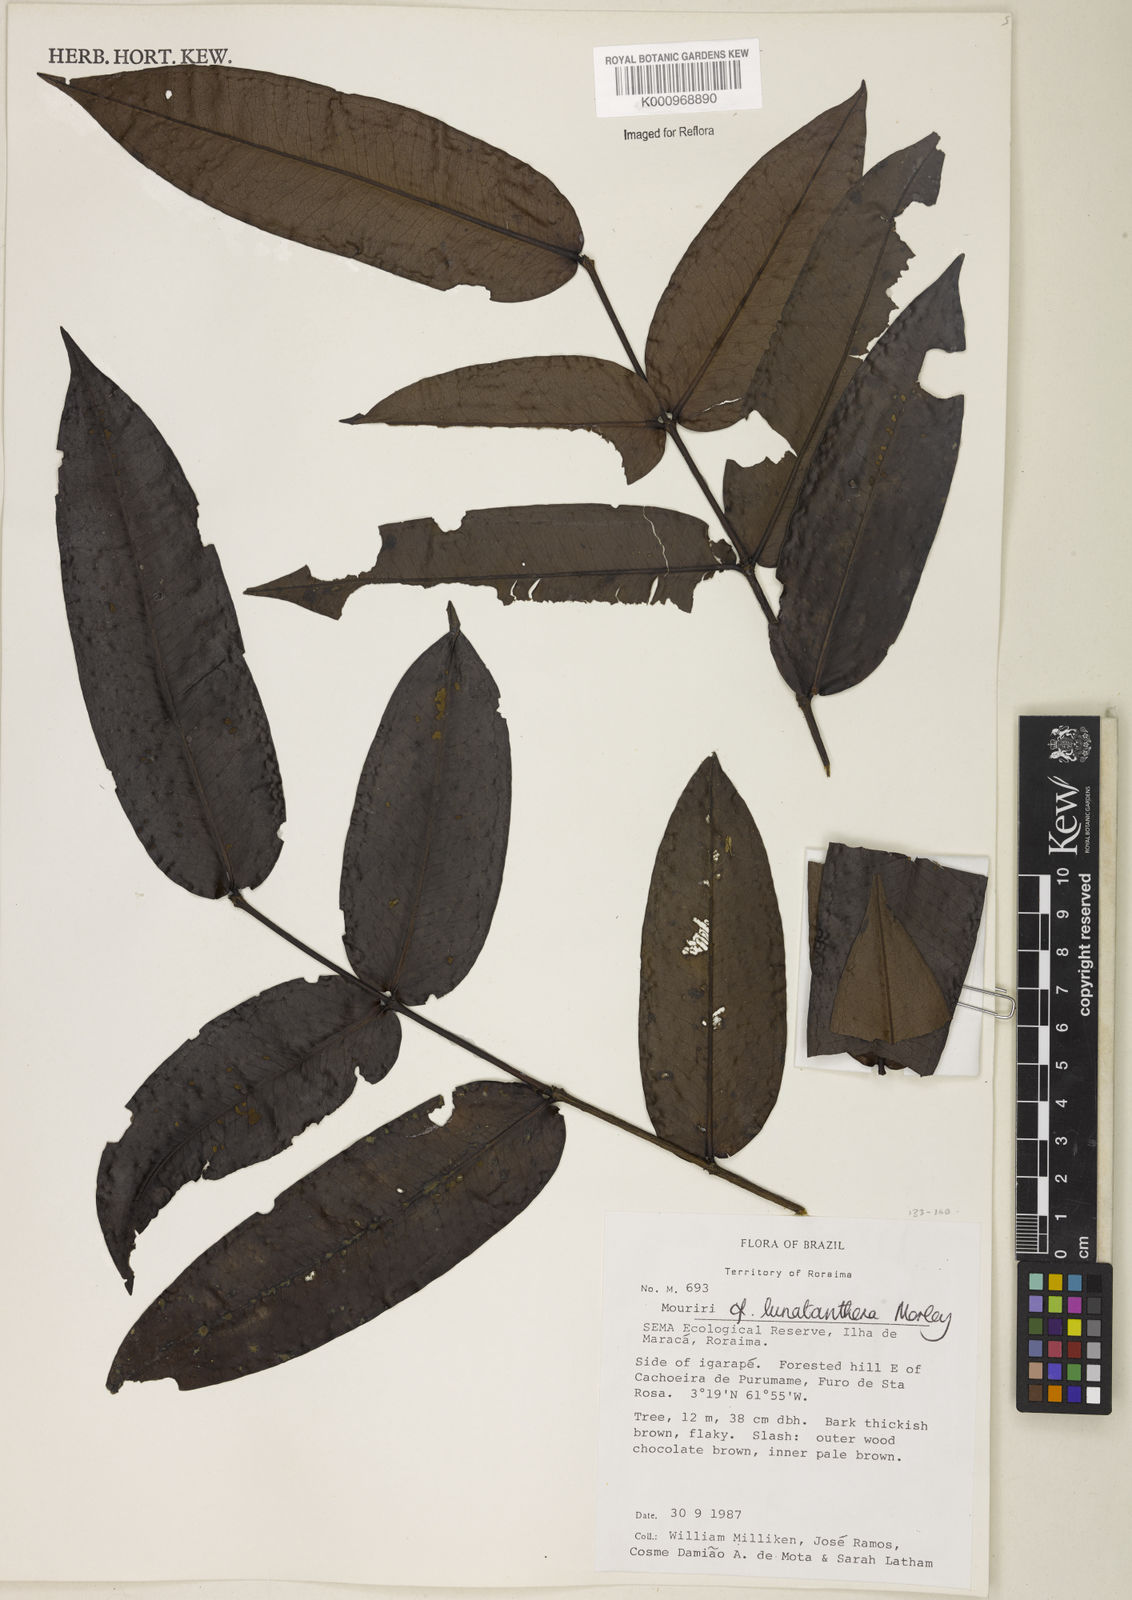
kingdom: Plantae
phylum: Tracheophyta
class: Magnoliopsida
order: Myrtales
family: Melastomataceae
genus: Mouriri
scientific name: Mouriri
